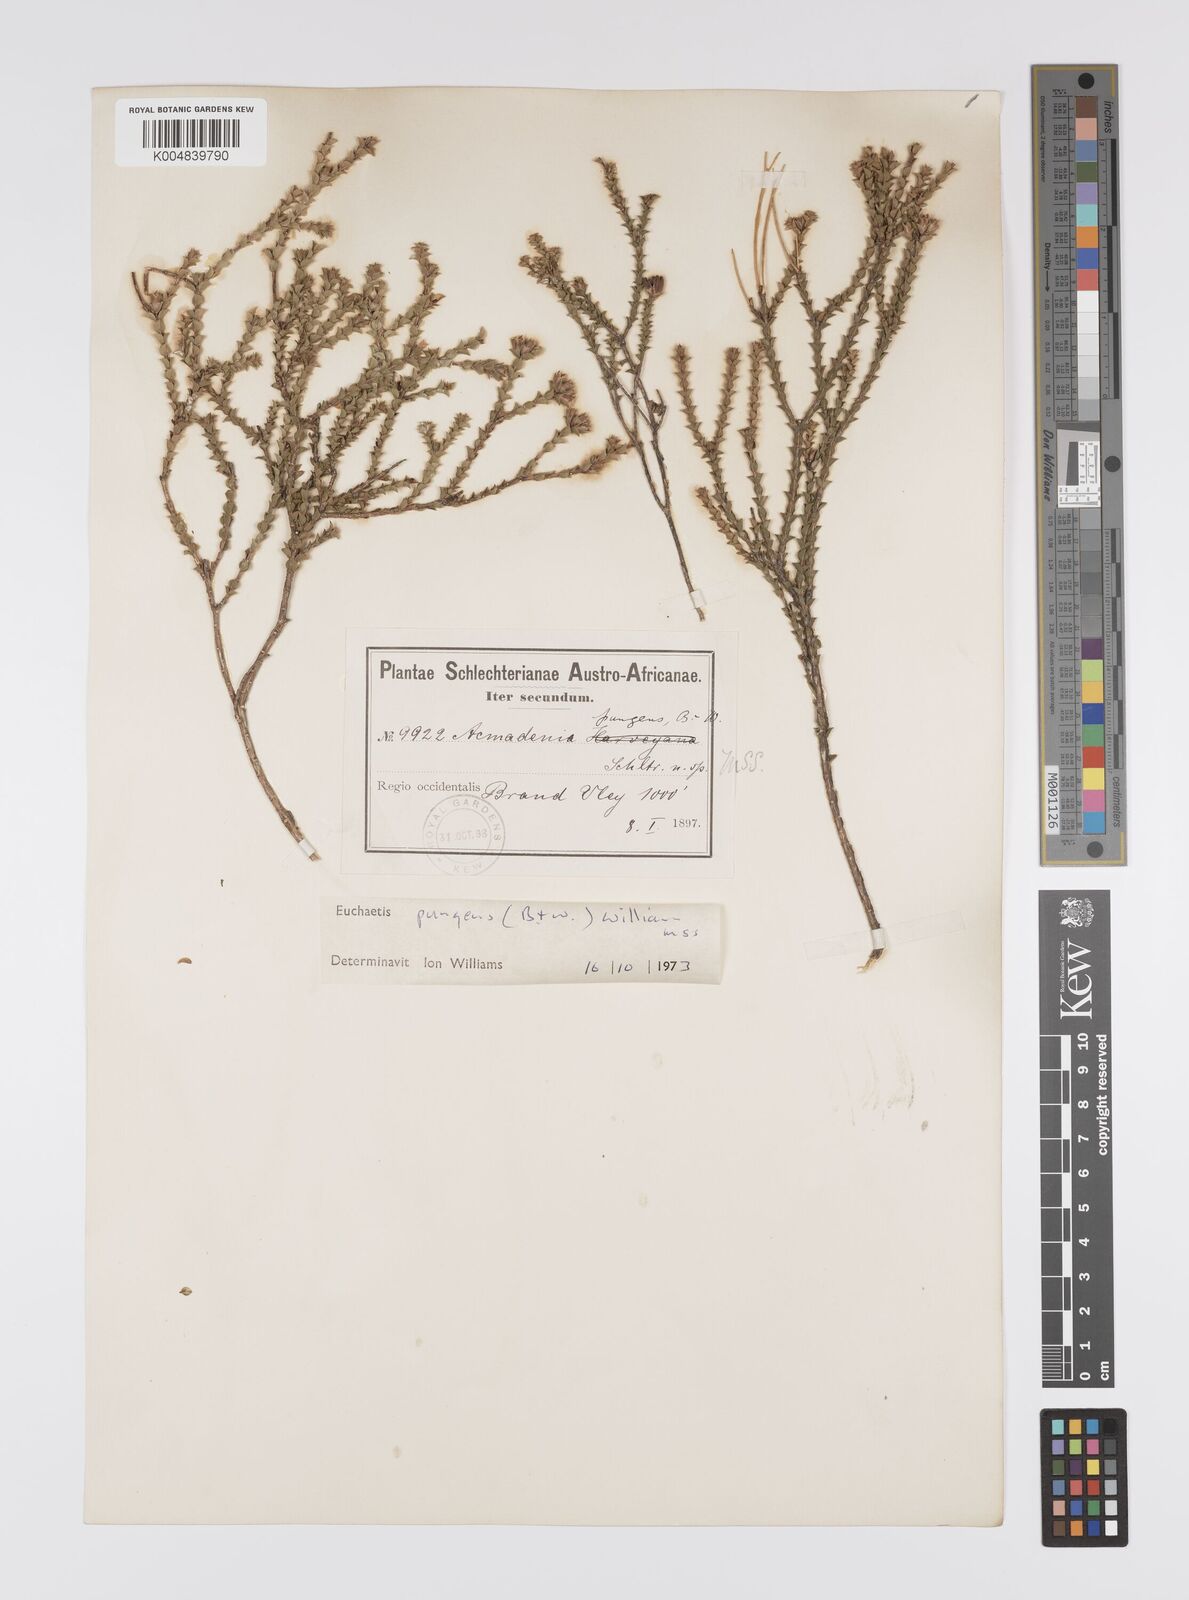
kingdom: Plantae
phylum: Tracheophyta
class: Magnoliopsida
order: Sapindales
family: Rutaceae
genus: Euchaetis
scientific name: Euchaetis pungens
